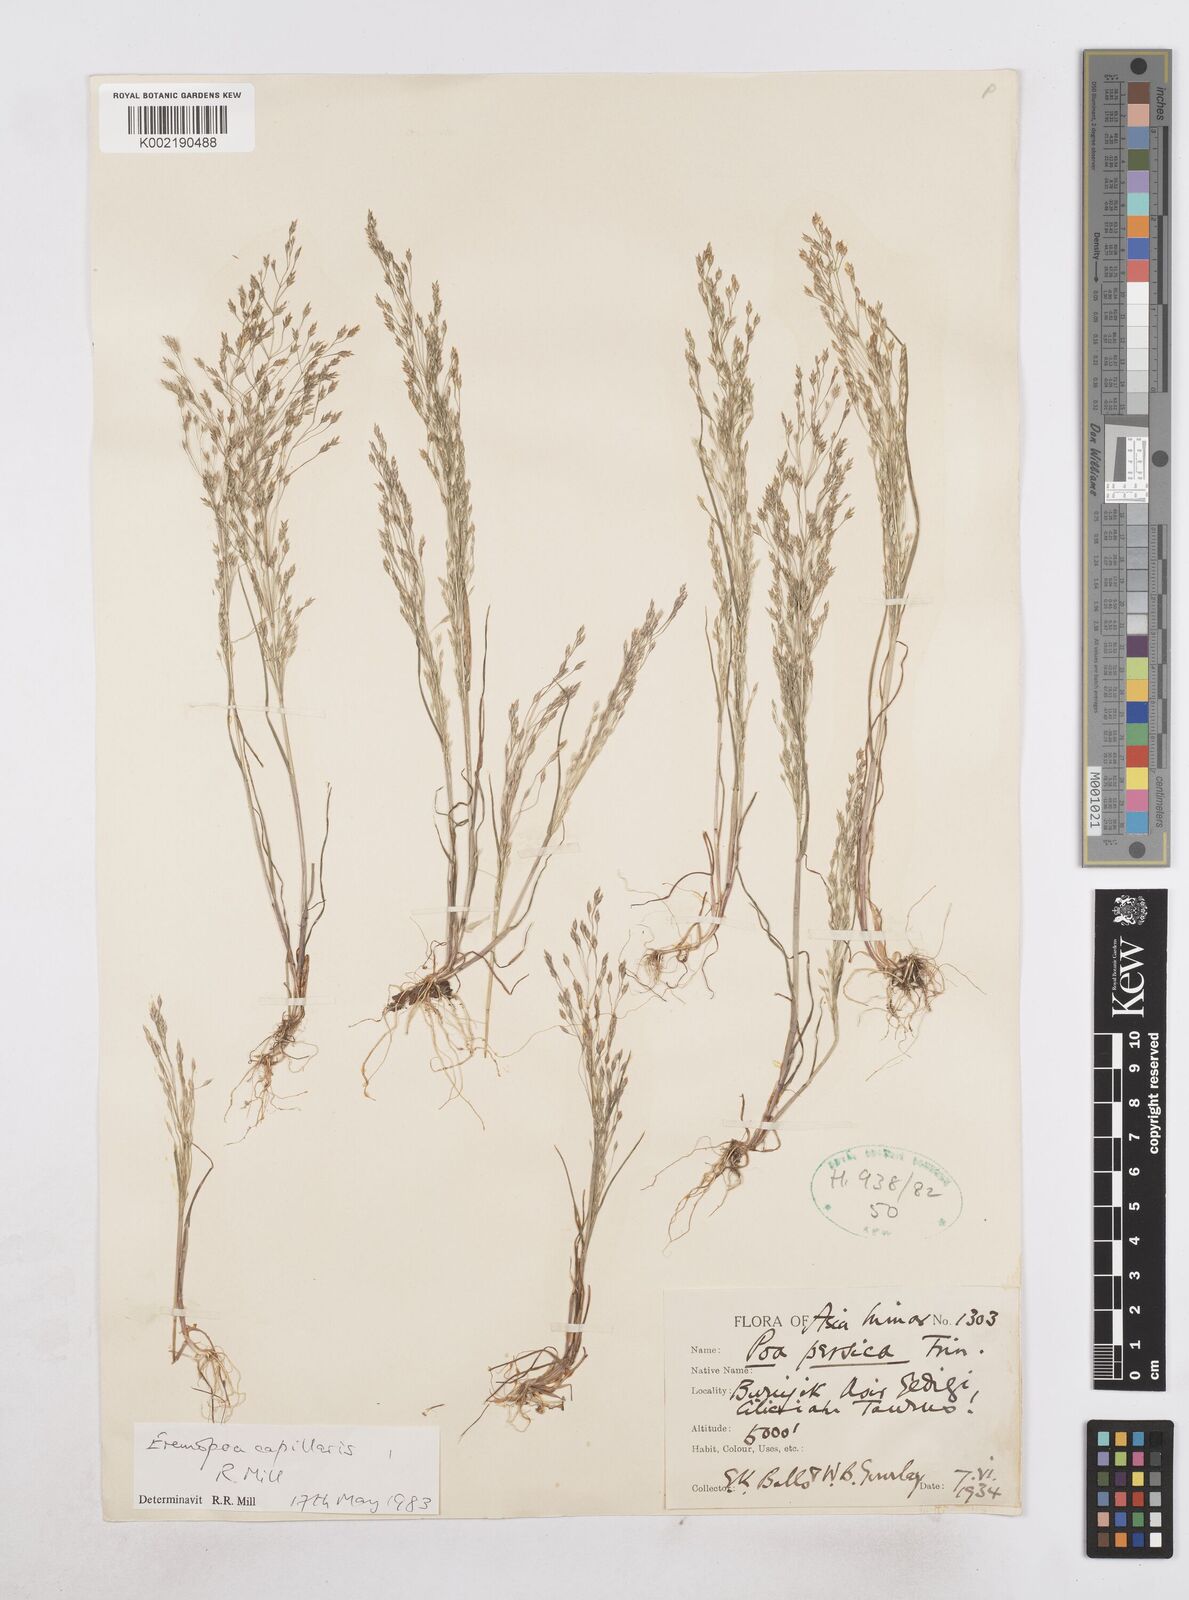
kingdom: Plantae
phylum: Tracheophyta
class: Liliopsida
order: Poales
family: Poaceae
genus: Poa
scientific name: Poa millii
